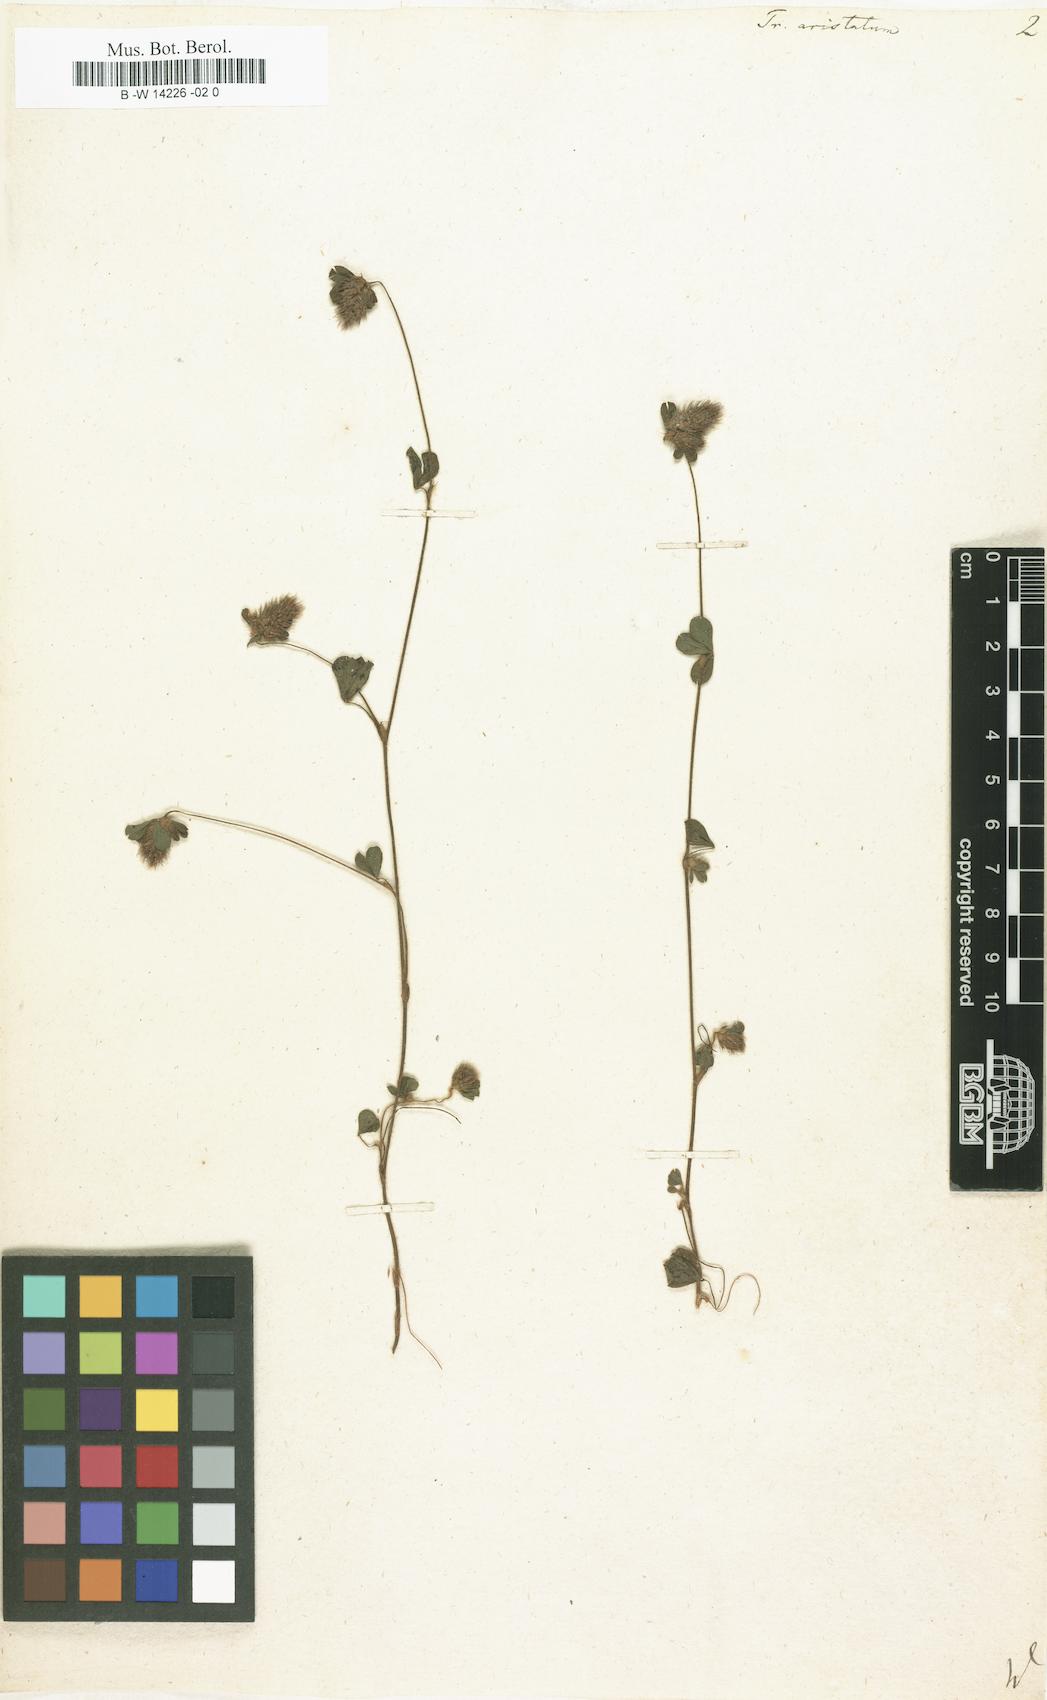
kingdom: Plantae
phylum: Tracheophyta
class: Magnoliopsida
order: Fabales
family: Fabaceae
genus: Trifolium
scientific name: Trifolium
